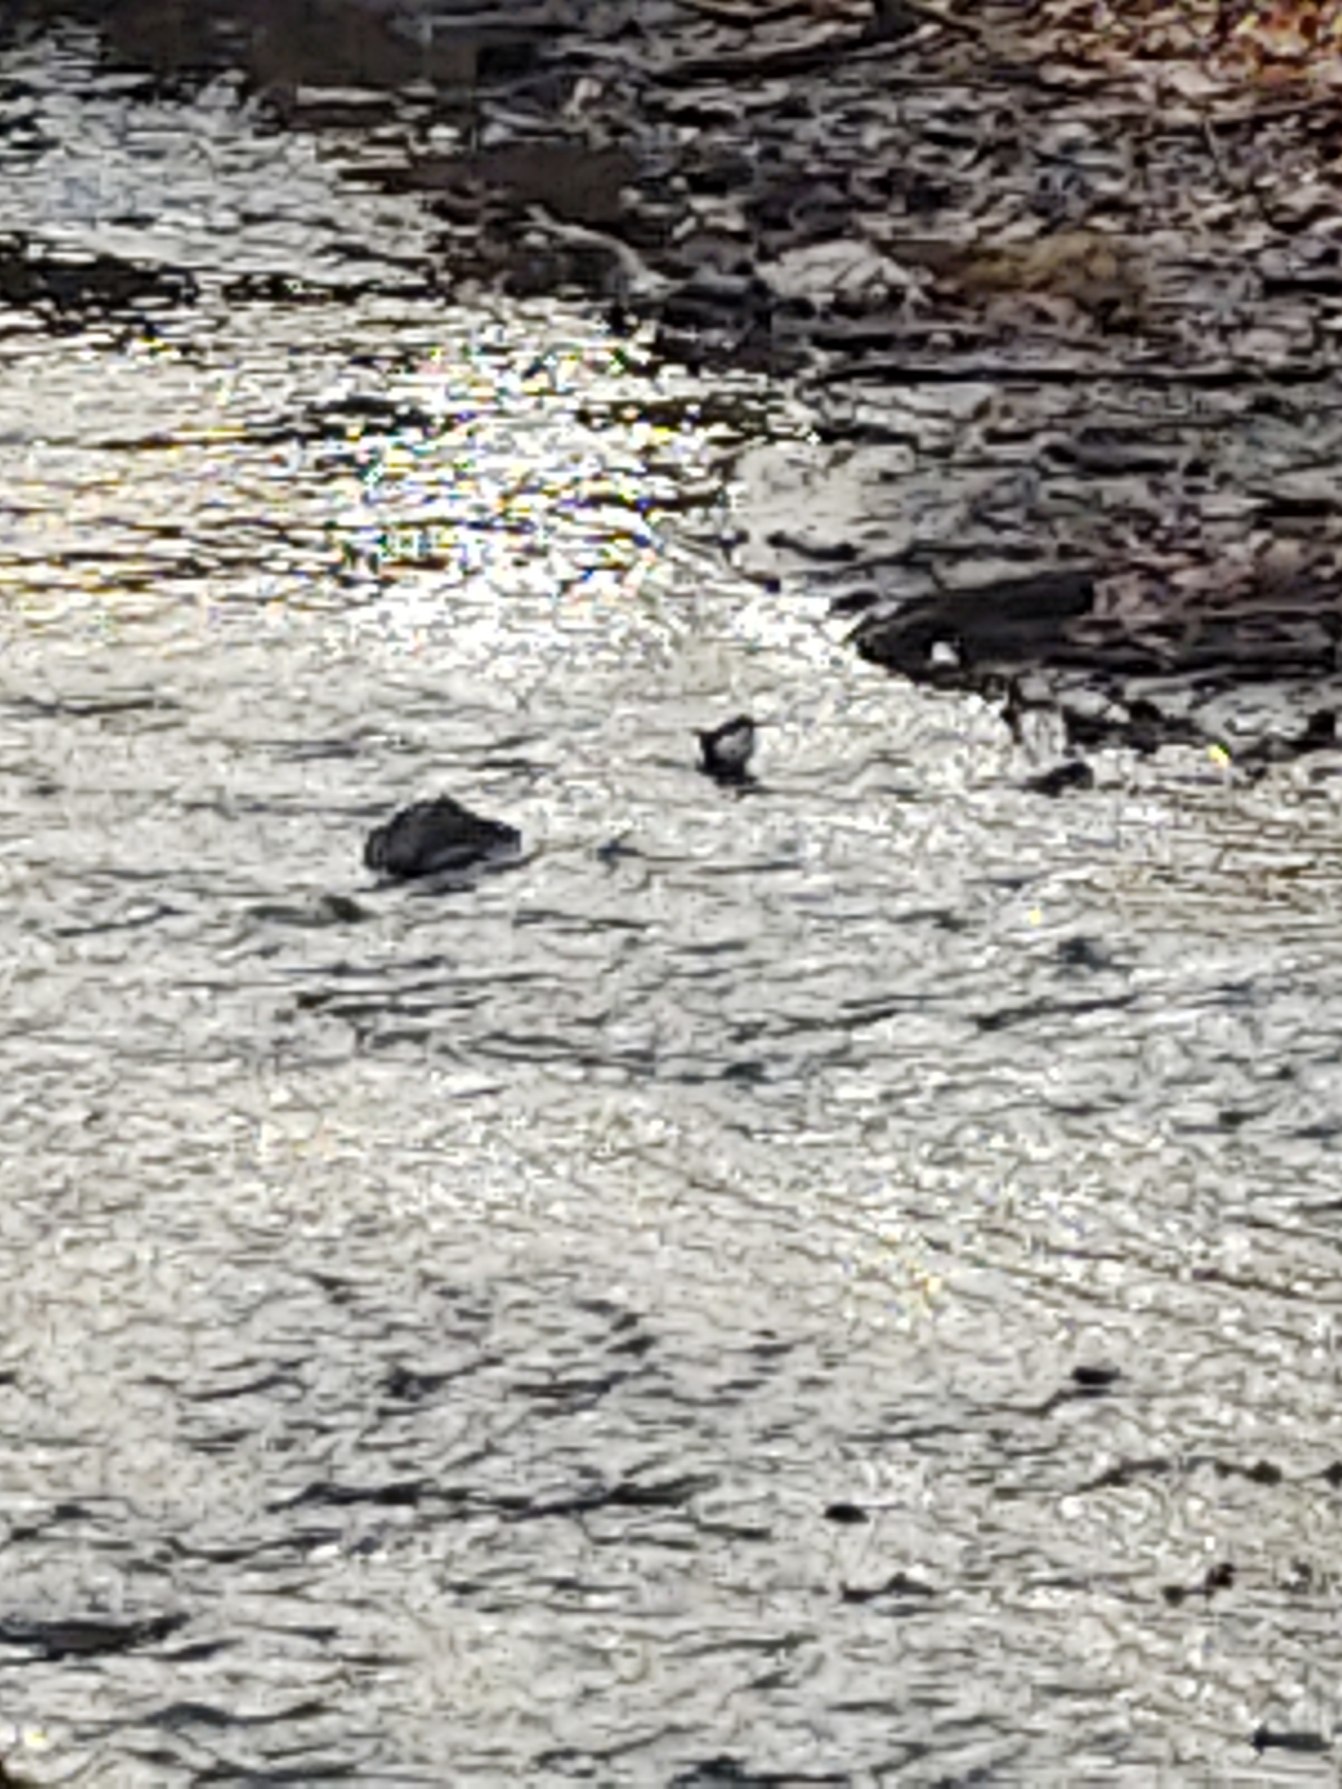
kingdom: Animalia
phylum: Chordata
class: Aves
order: Passeriformes
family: Cinclidae
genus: Cinclus
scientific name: Cinclus cinclus
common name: Vandstær
